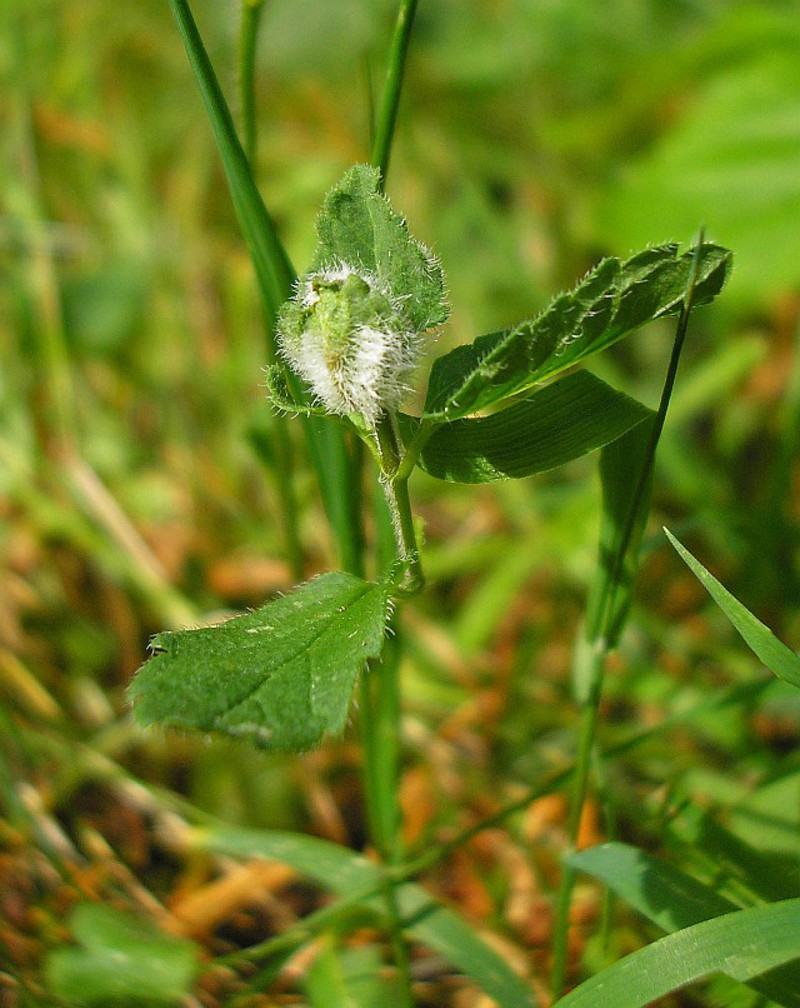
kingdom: Animalia
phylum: Arthropoda
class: Insecta
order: Diptera
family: Cecidomyiidae
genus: Jaapiella
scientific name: Jaapiella veronicae
